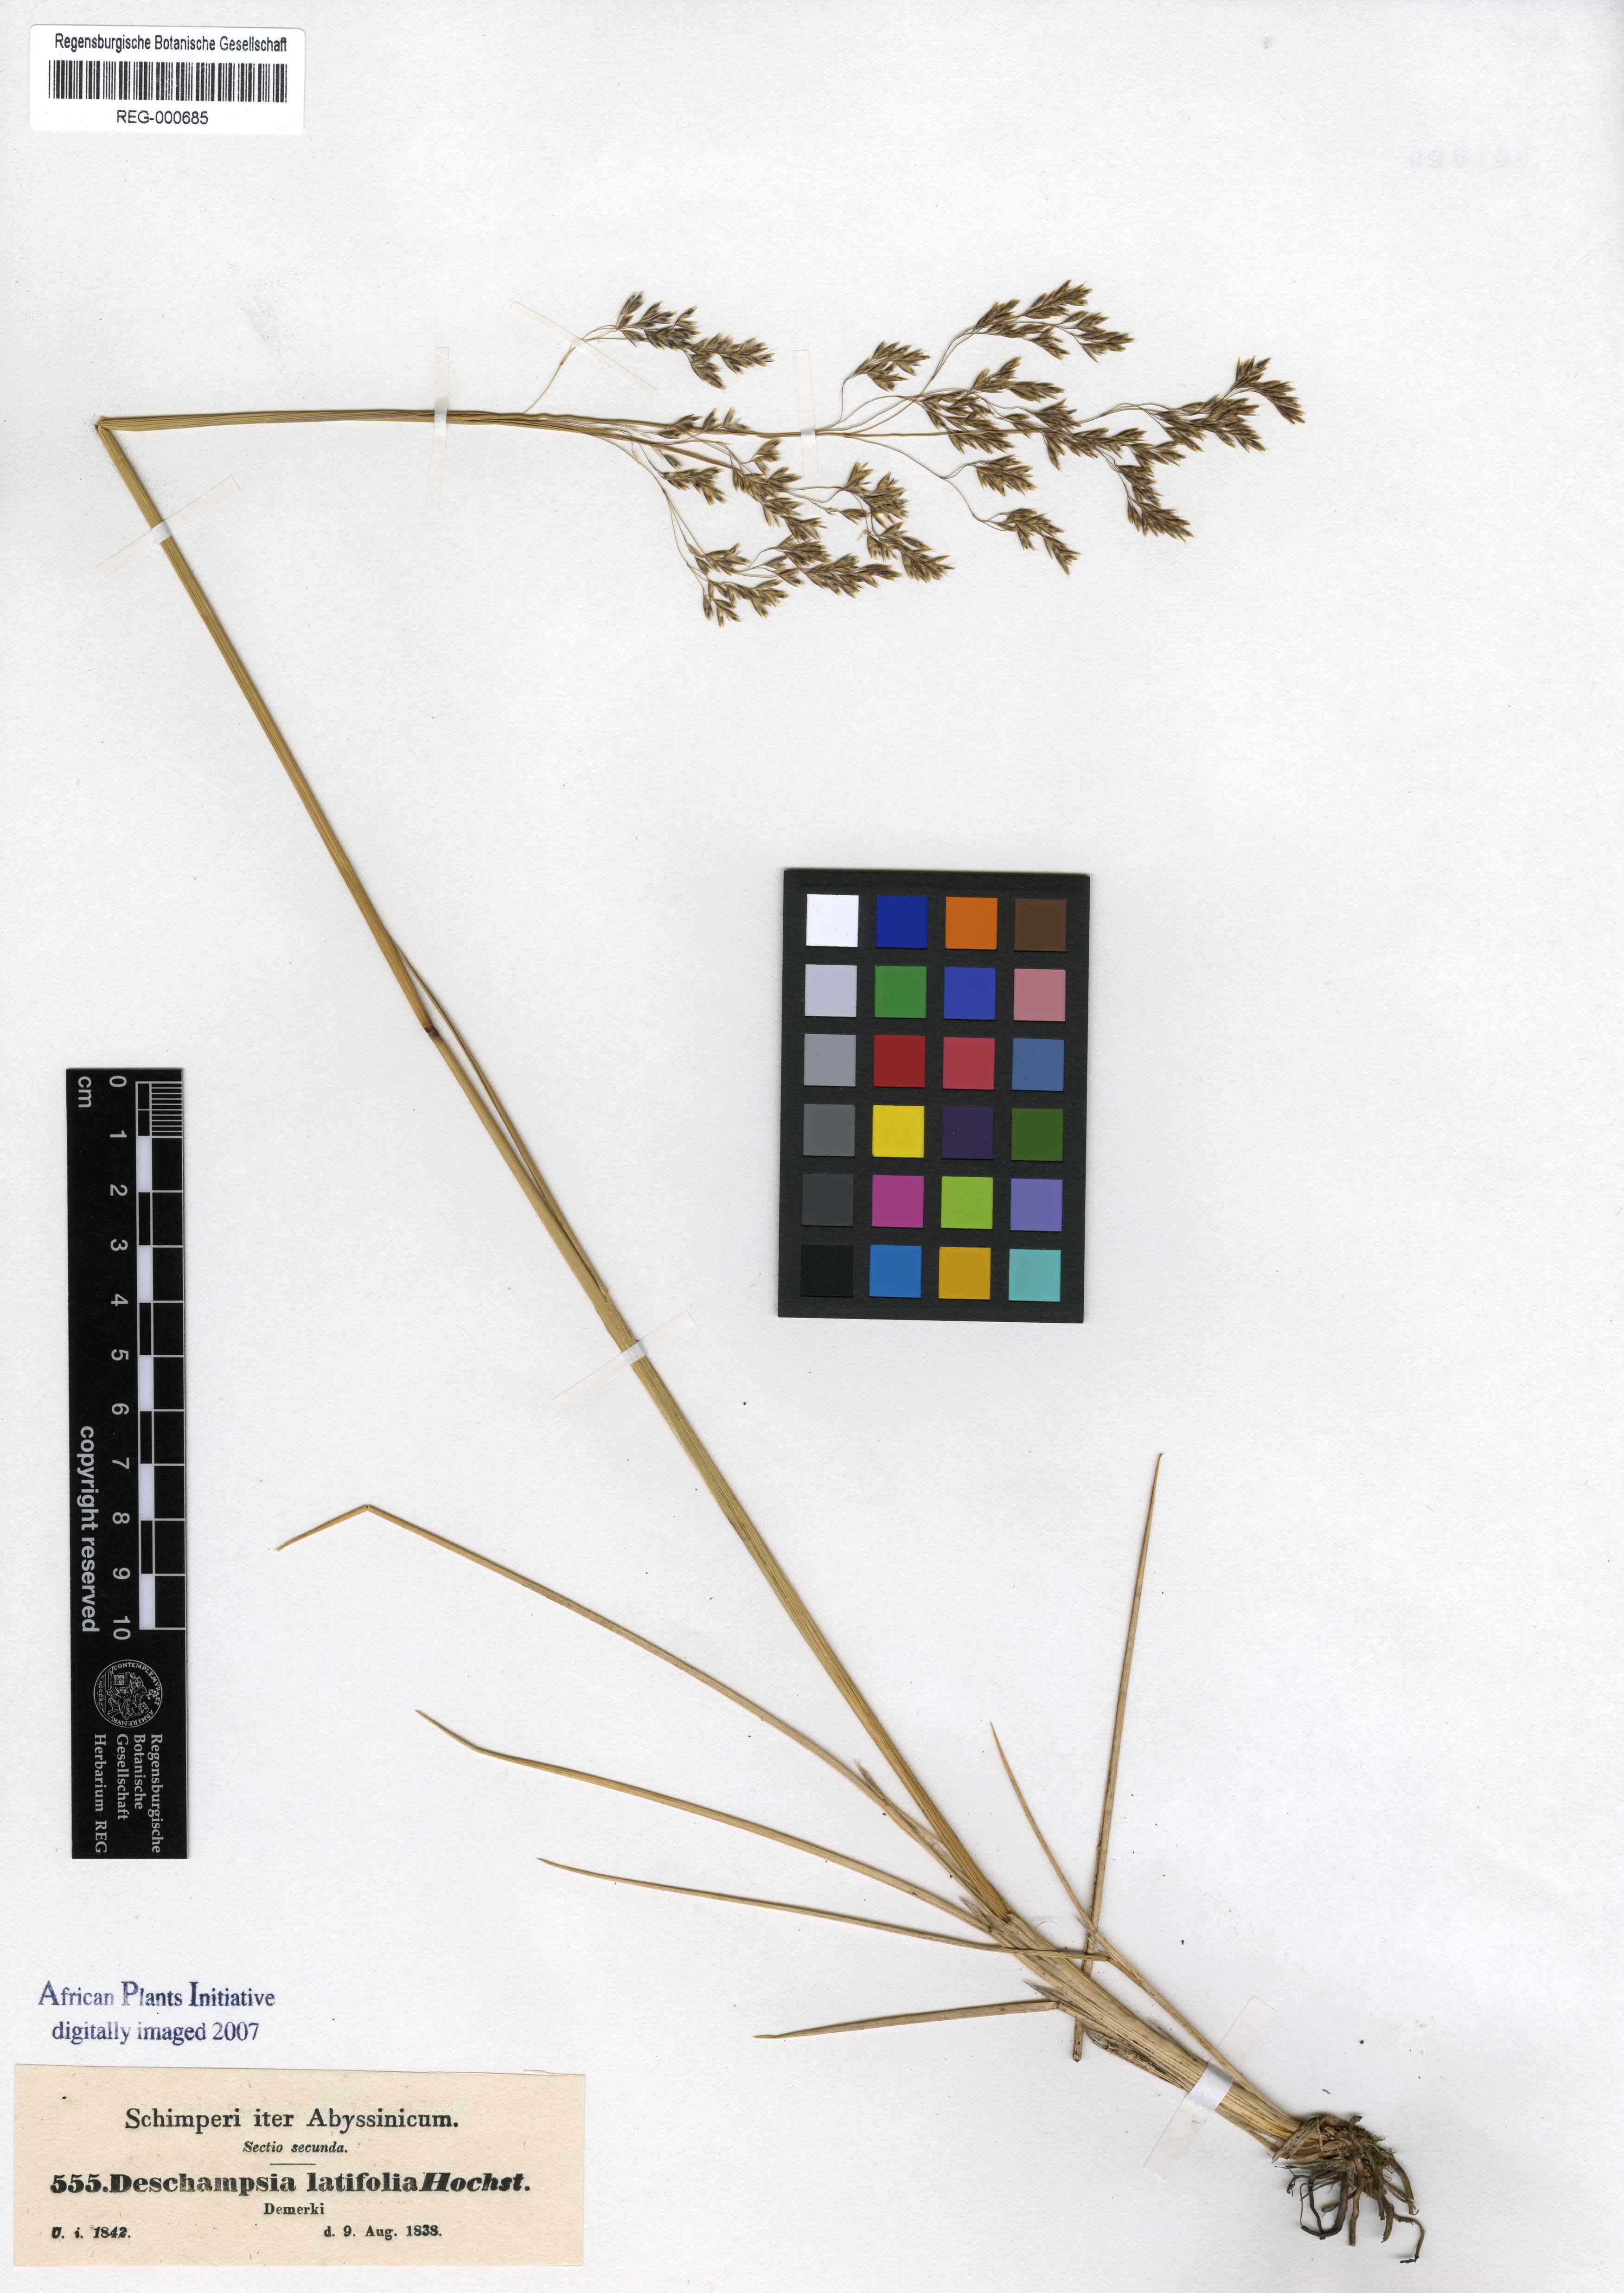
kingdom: Plantae
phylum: Tracheophyta
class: Liliopsida
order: Poales
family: Poaceae
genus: Deschampsia
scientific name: Deschampsia cespitosa
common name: Tufted hair-grass
